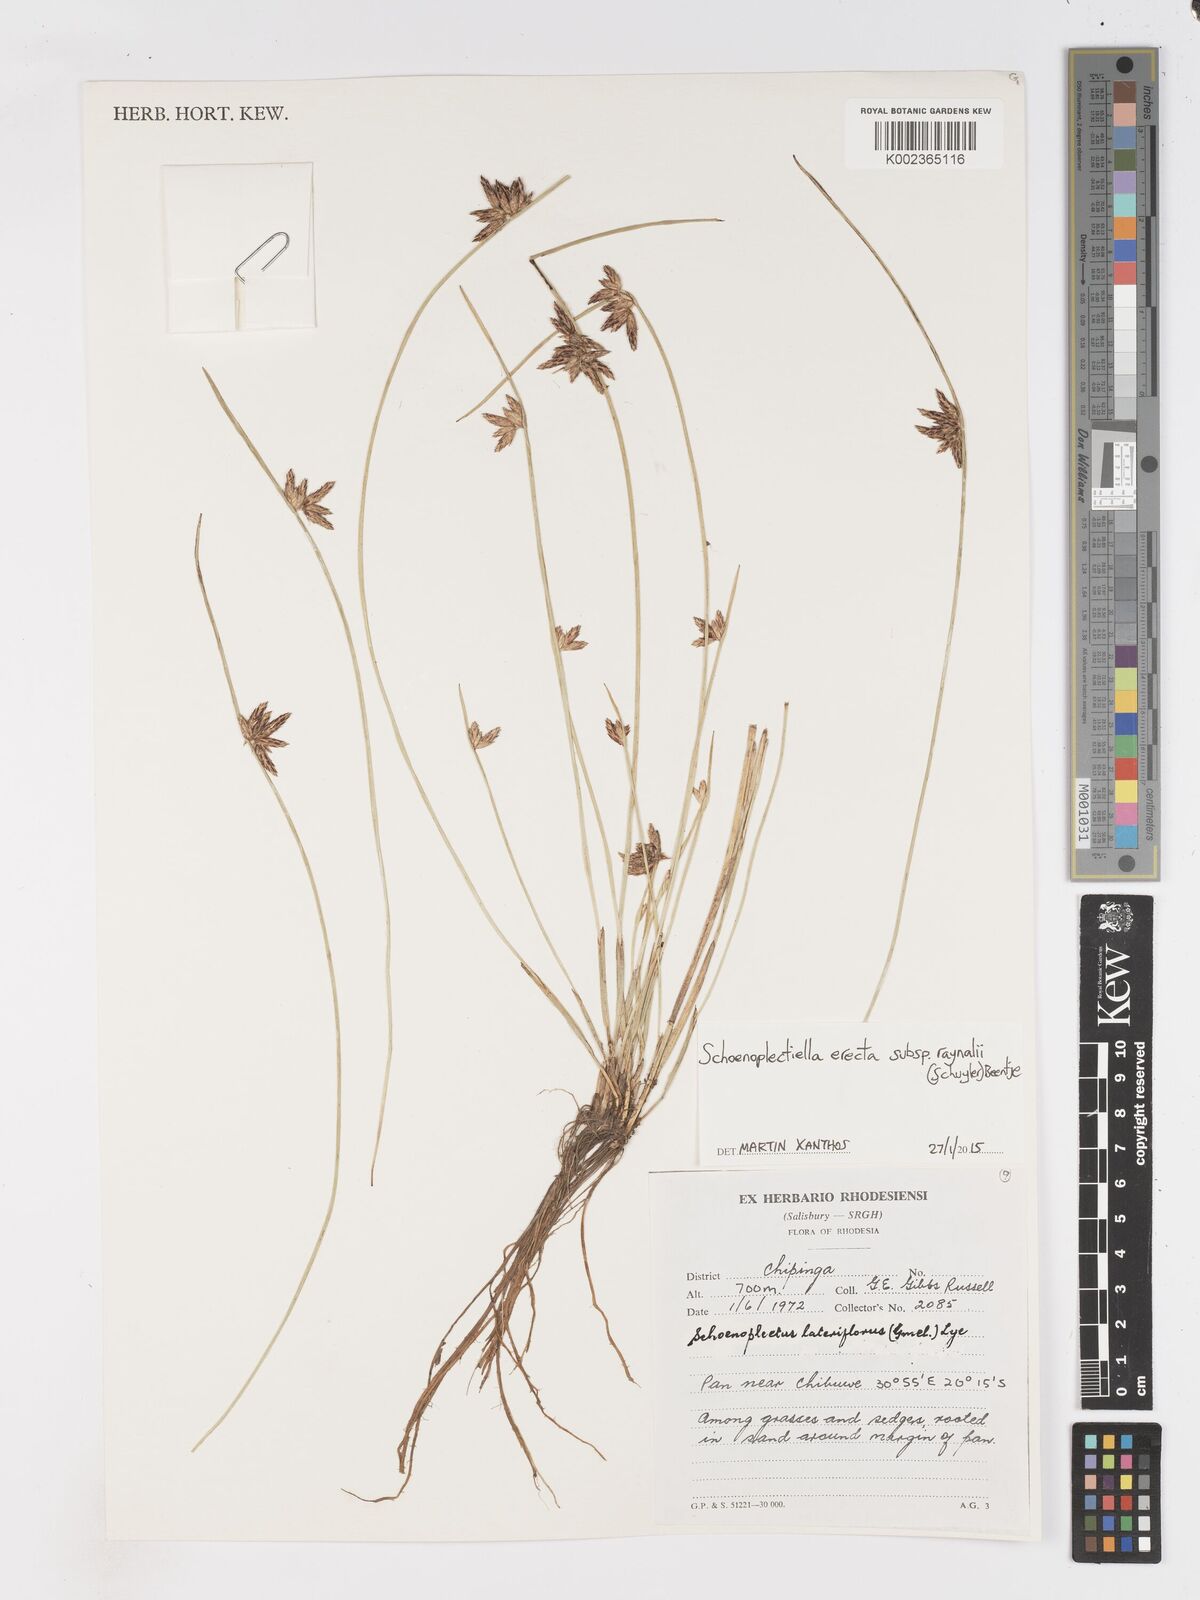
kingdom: Plantae
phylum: Tracheophyta
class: Liliopsida
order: Poales
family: Cyperaceae
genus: Schoenoplectiella
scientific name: Schoenoplectiella erecta
